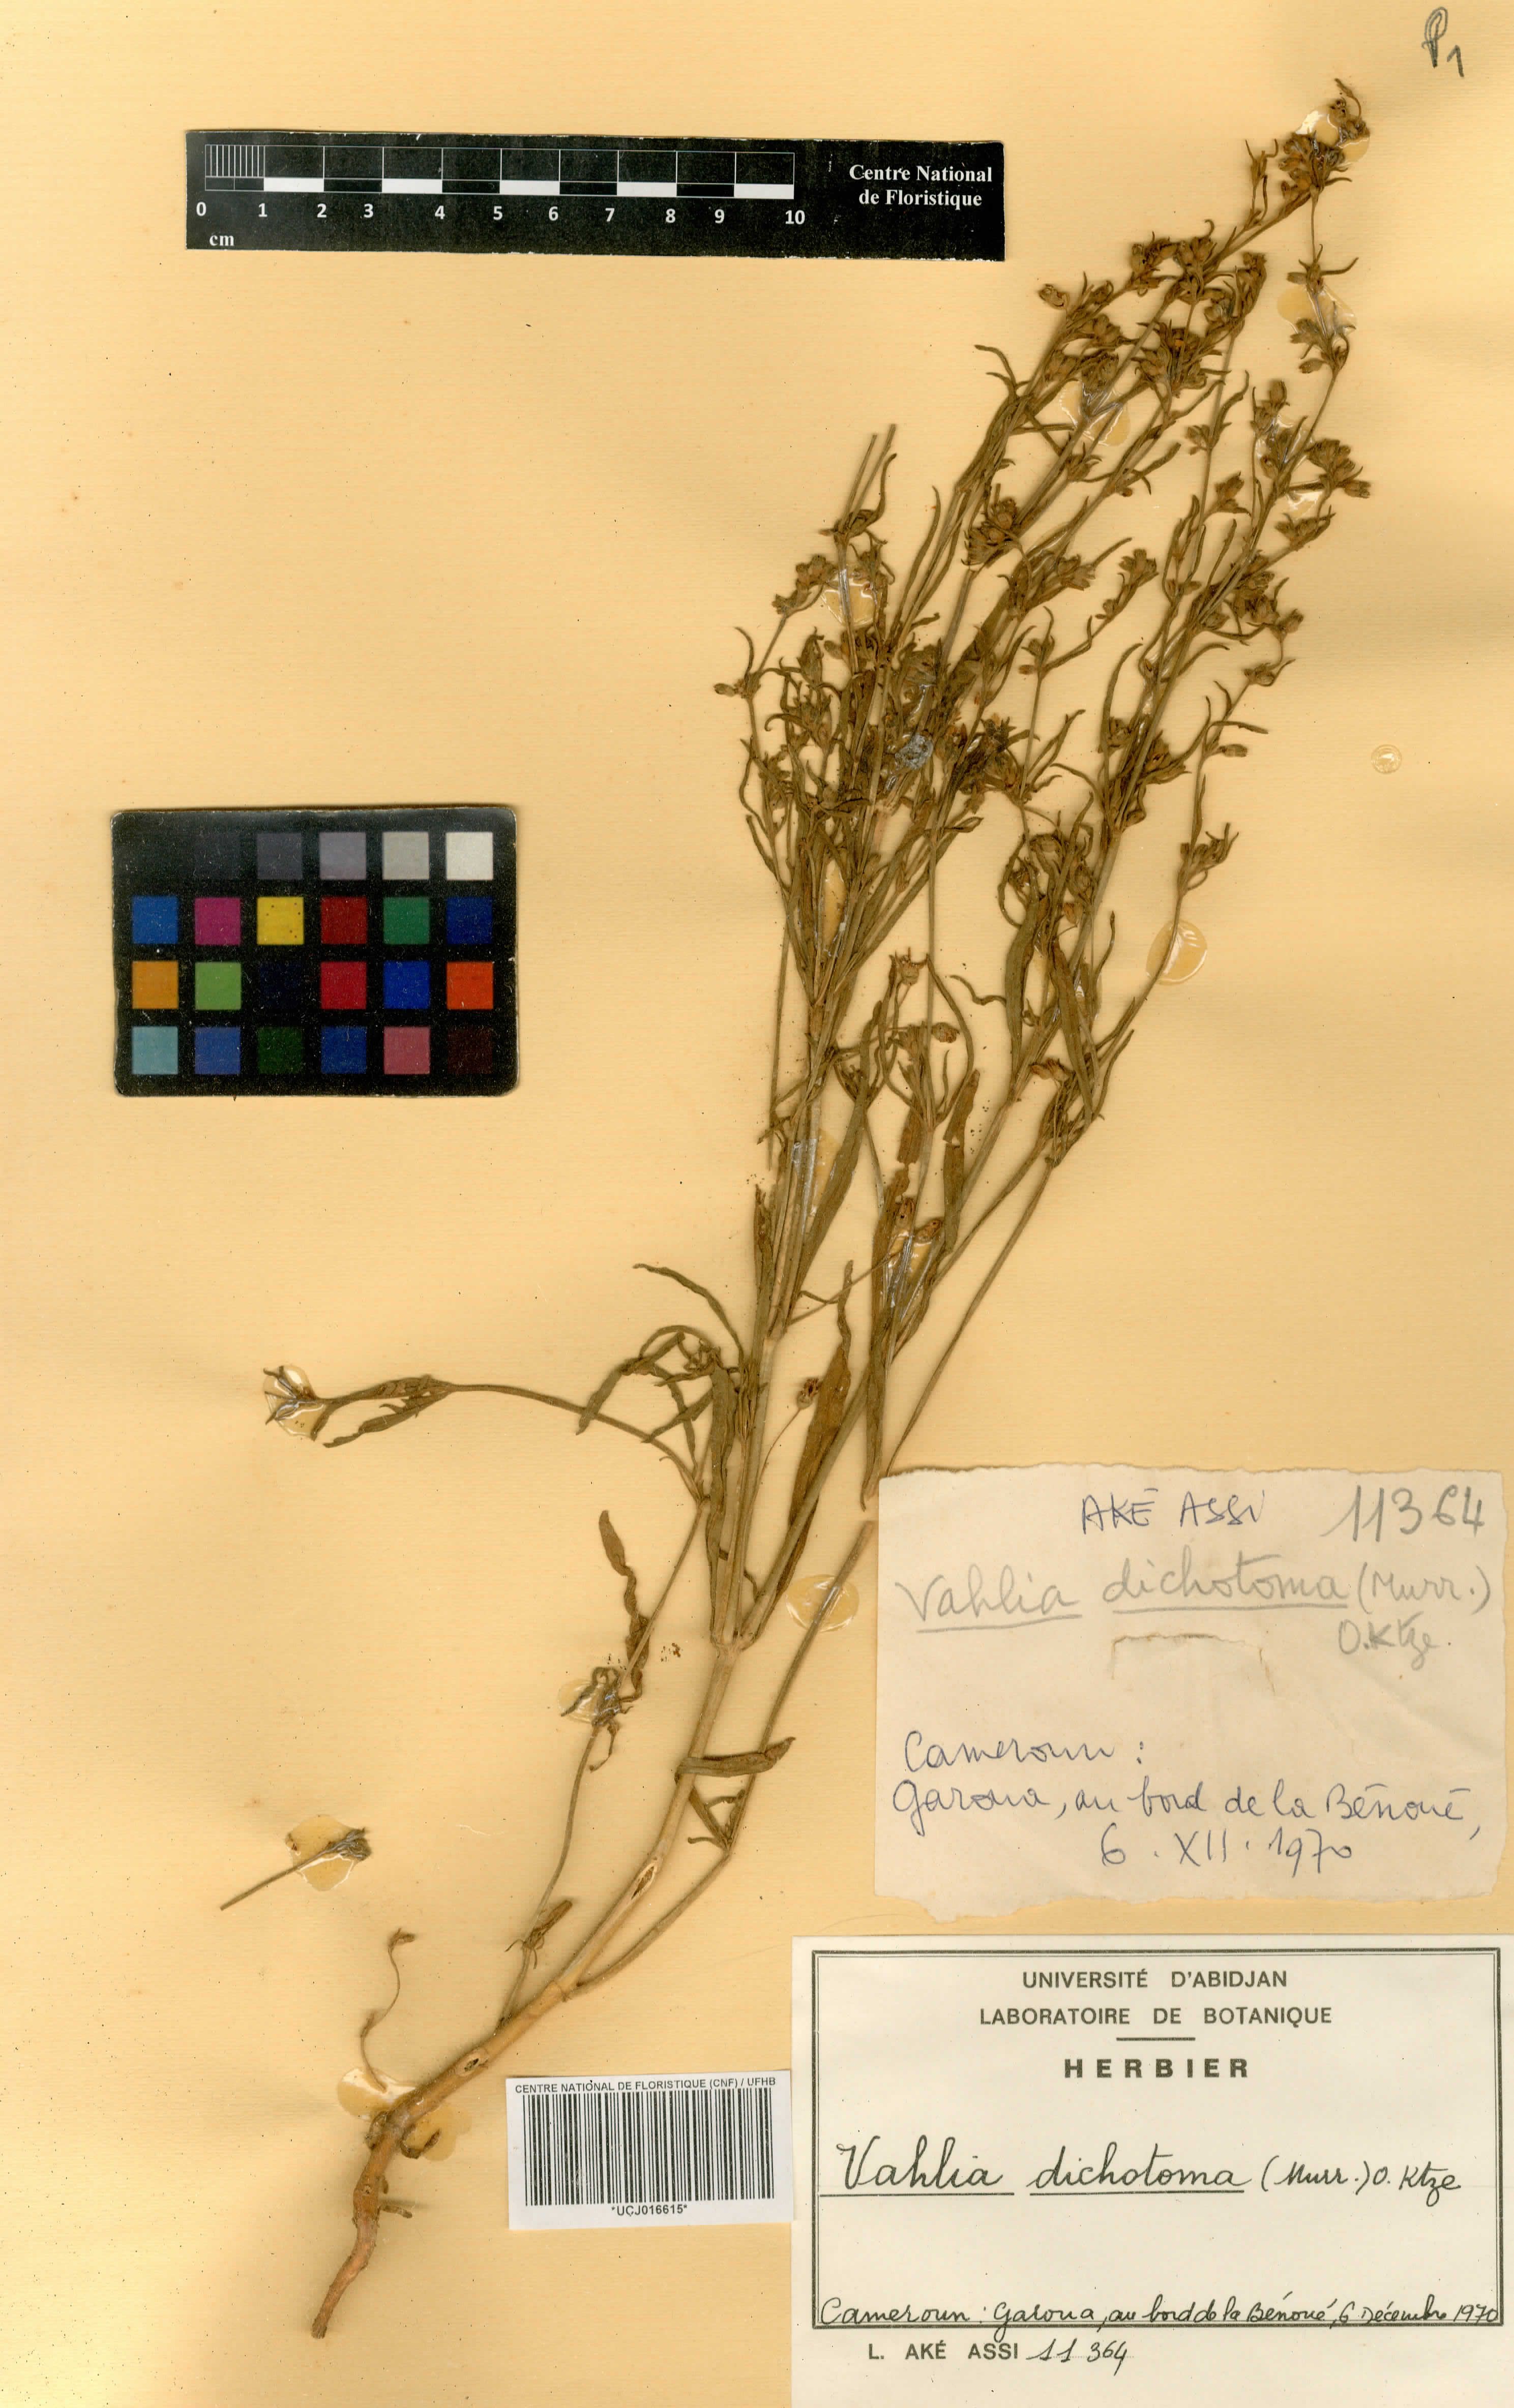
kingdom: Plantae
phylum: Tracheophyta
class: Magnoliopsida
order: Saxifragales
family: Saxifragaceae
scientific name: Saxifragaceae
